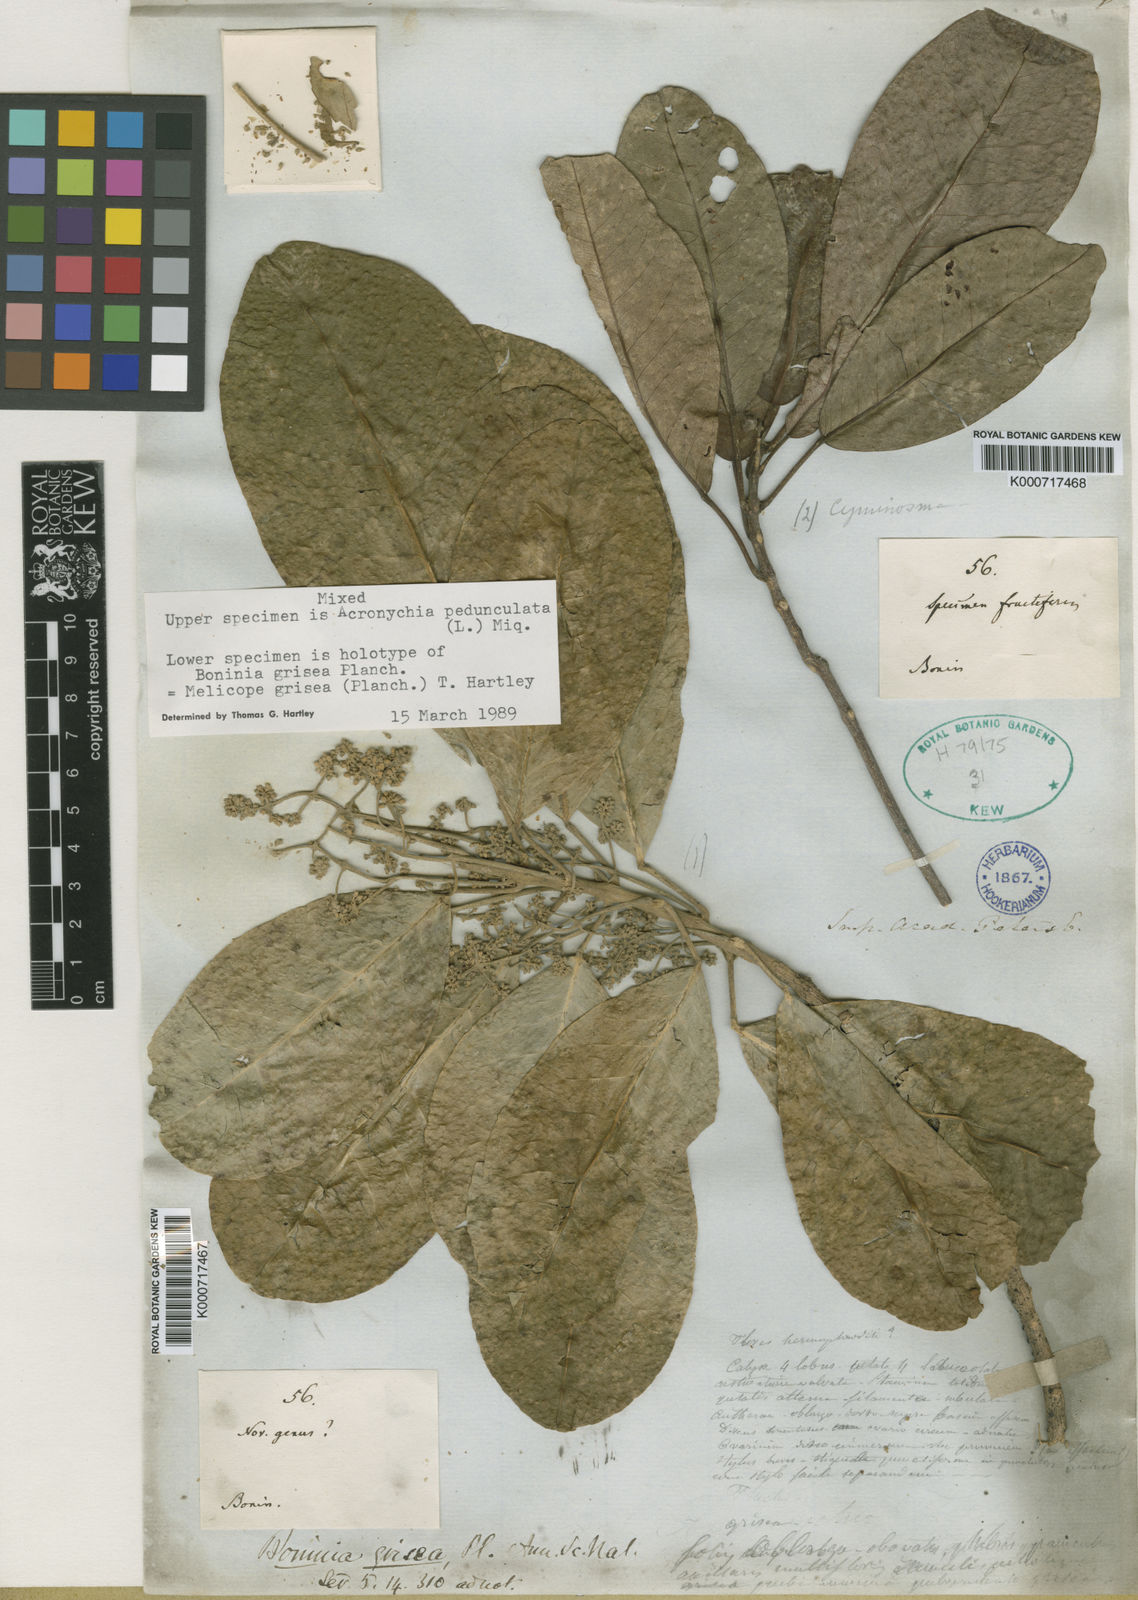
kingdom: Plantae
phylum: Tracheophyta
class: Magnoliopsida
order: Sapindales
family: Rutaceae
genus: Melicope
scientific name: Melicope grisea
